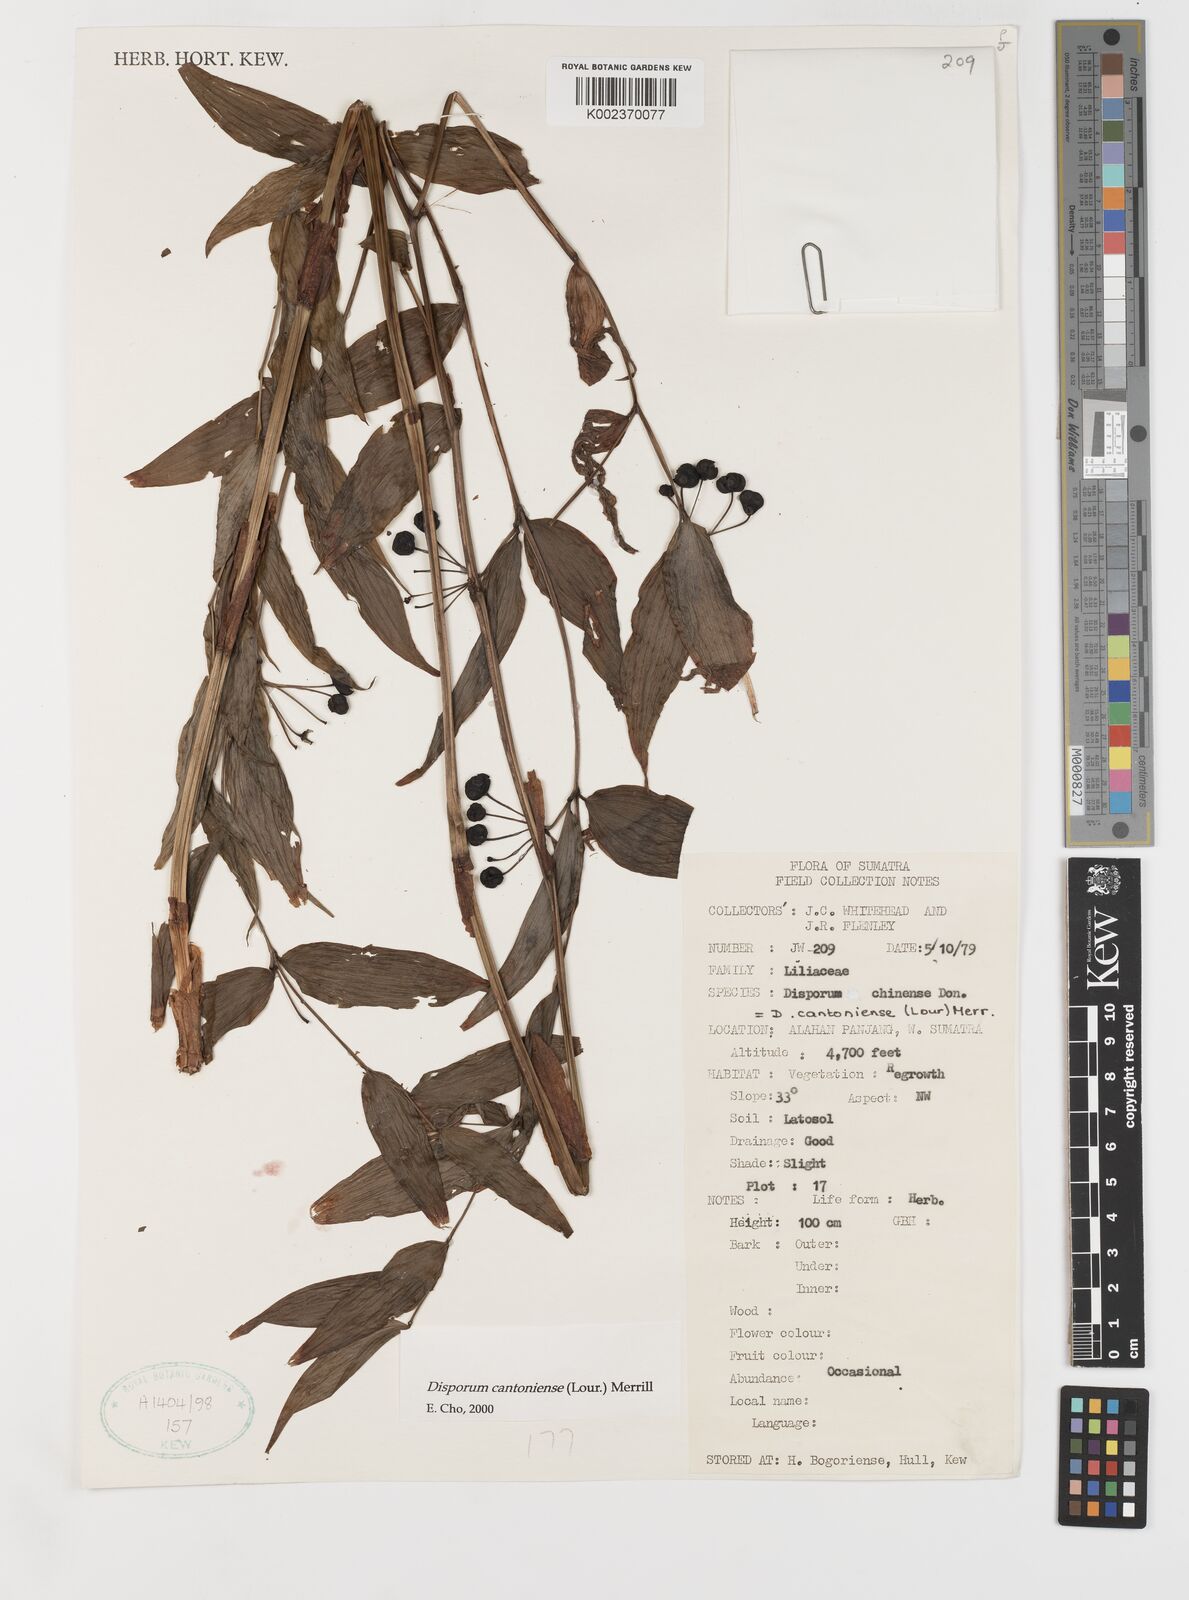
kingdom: Plantae
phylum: Tracheophyta
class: Liliopsida
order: Liliales
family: Colchicaceae
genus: Disporum
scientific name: Disporum cantoniense
